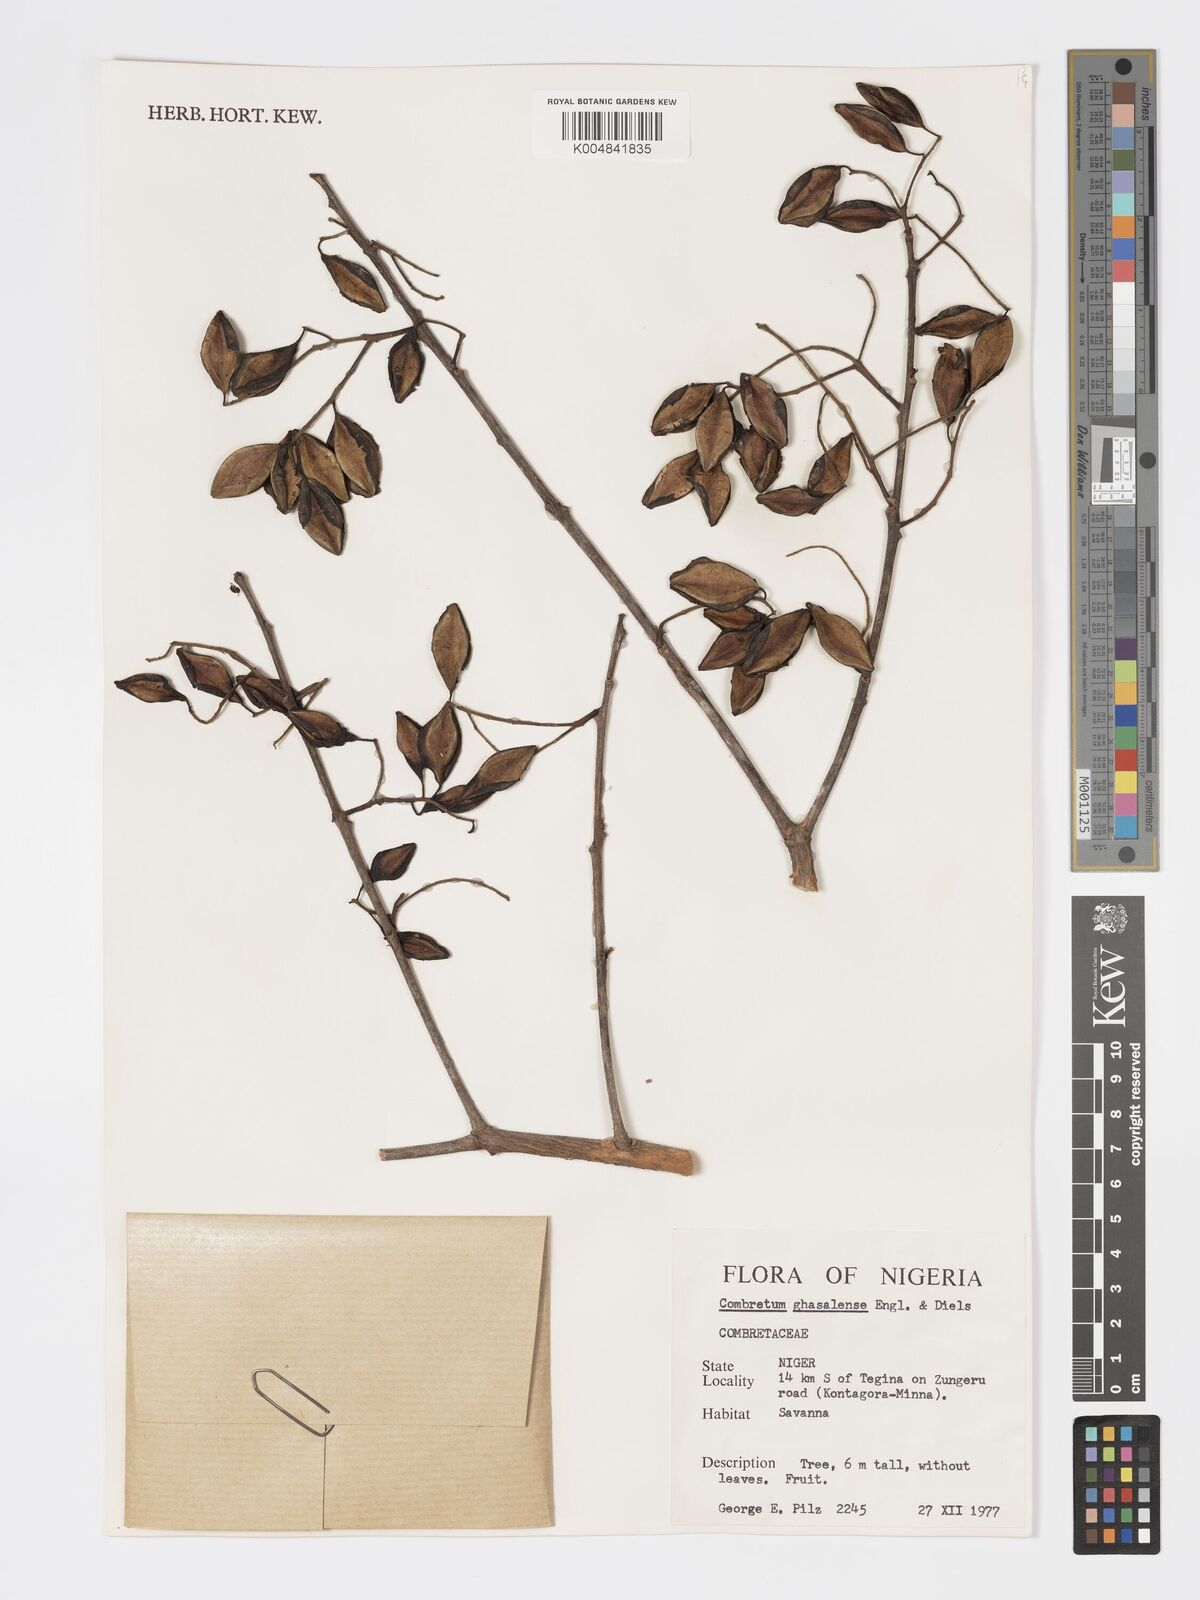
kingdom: Plantae
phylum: Tracheophyta
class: Magnoliopsida
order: Myrtales
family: Combretaceae
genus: Combretum
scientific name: Combretum adenogonium
